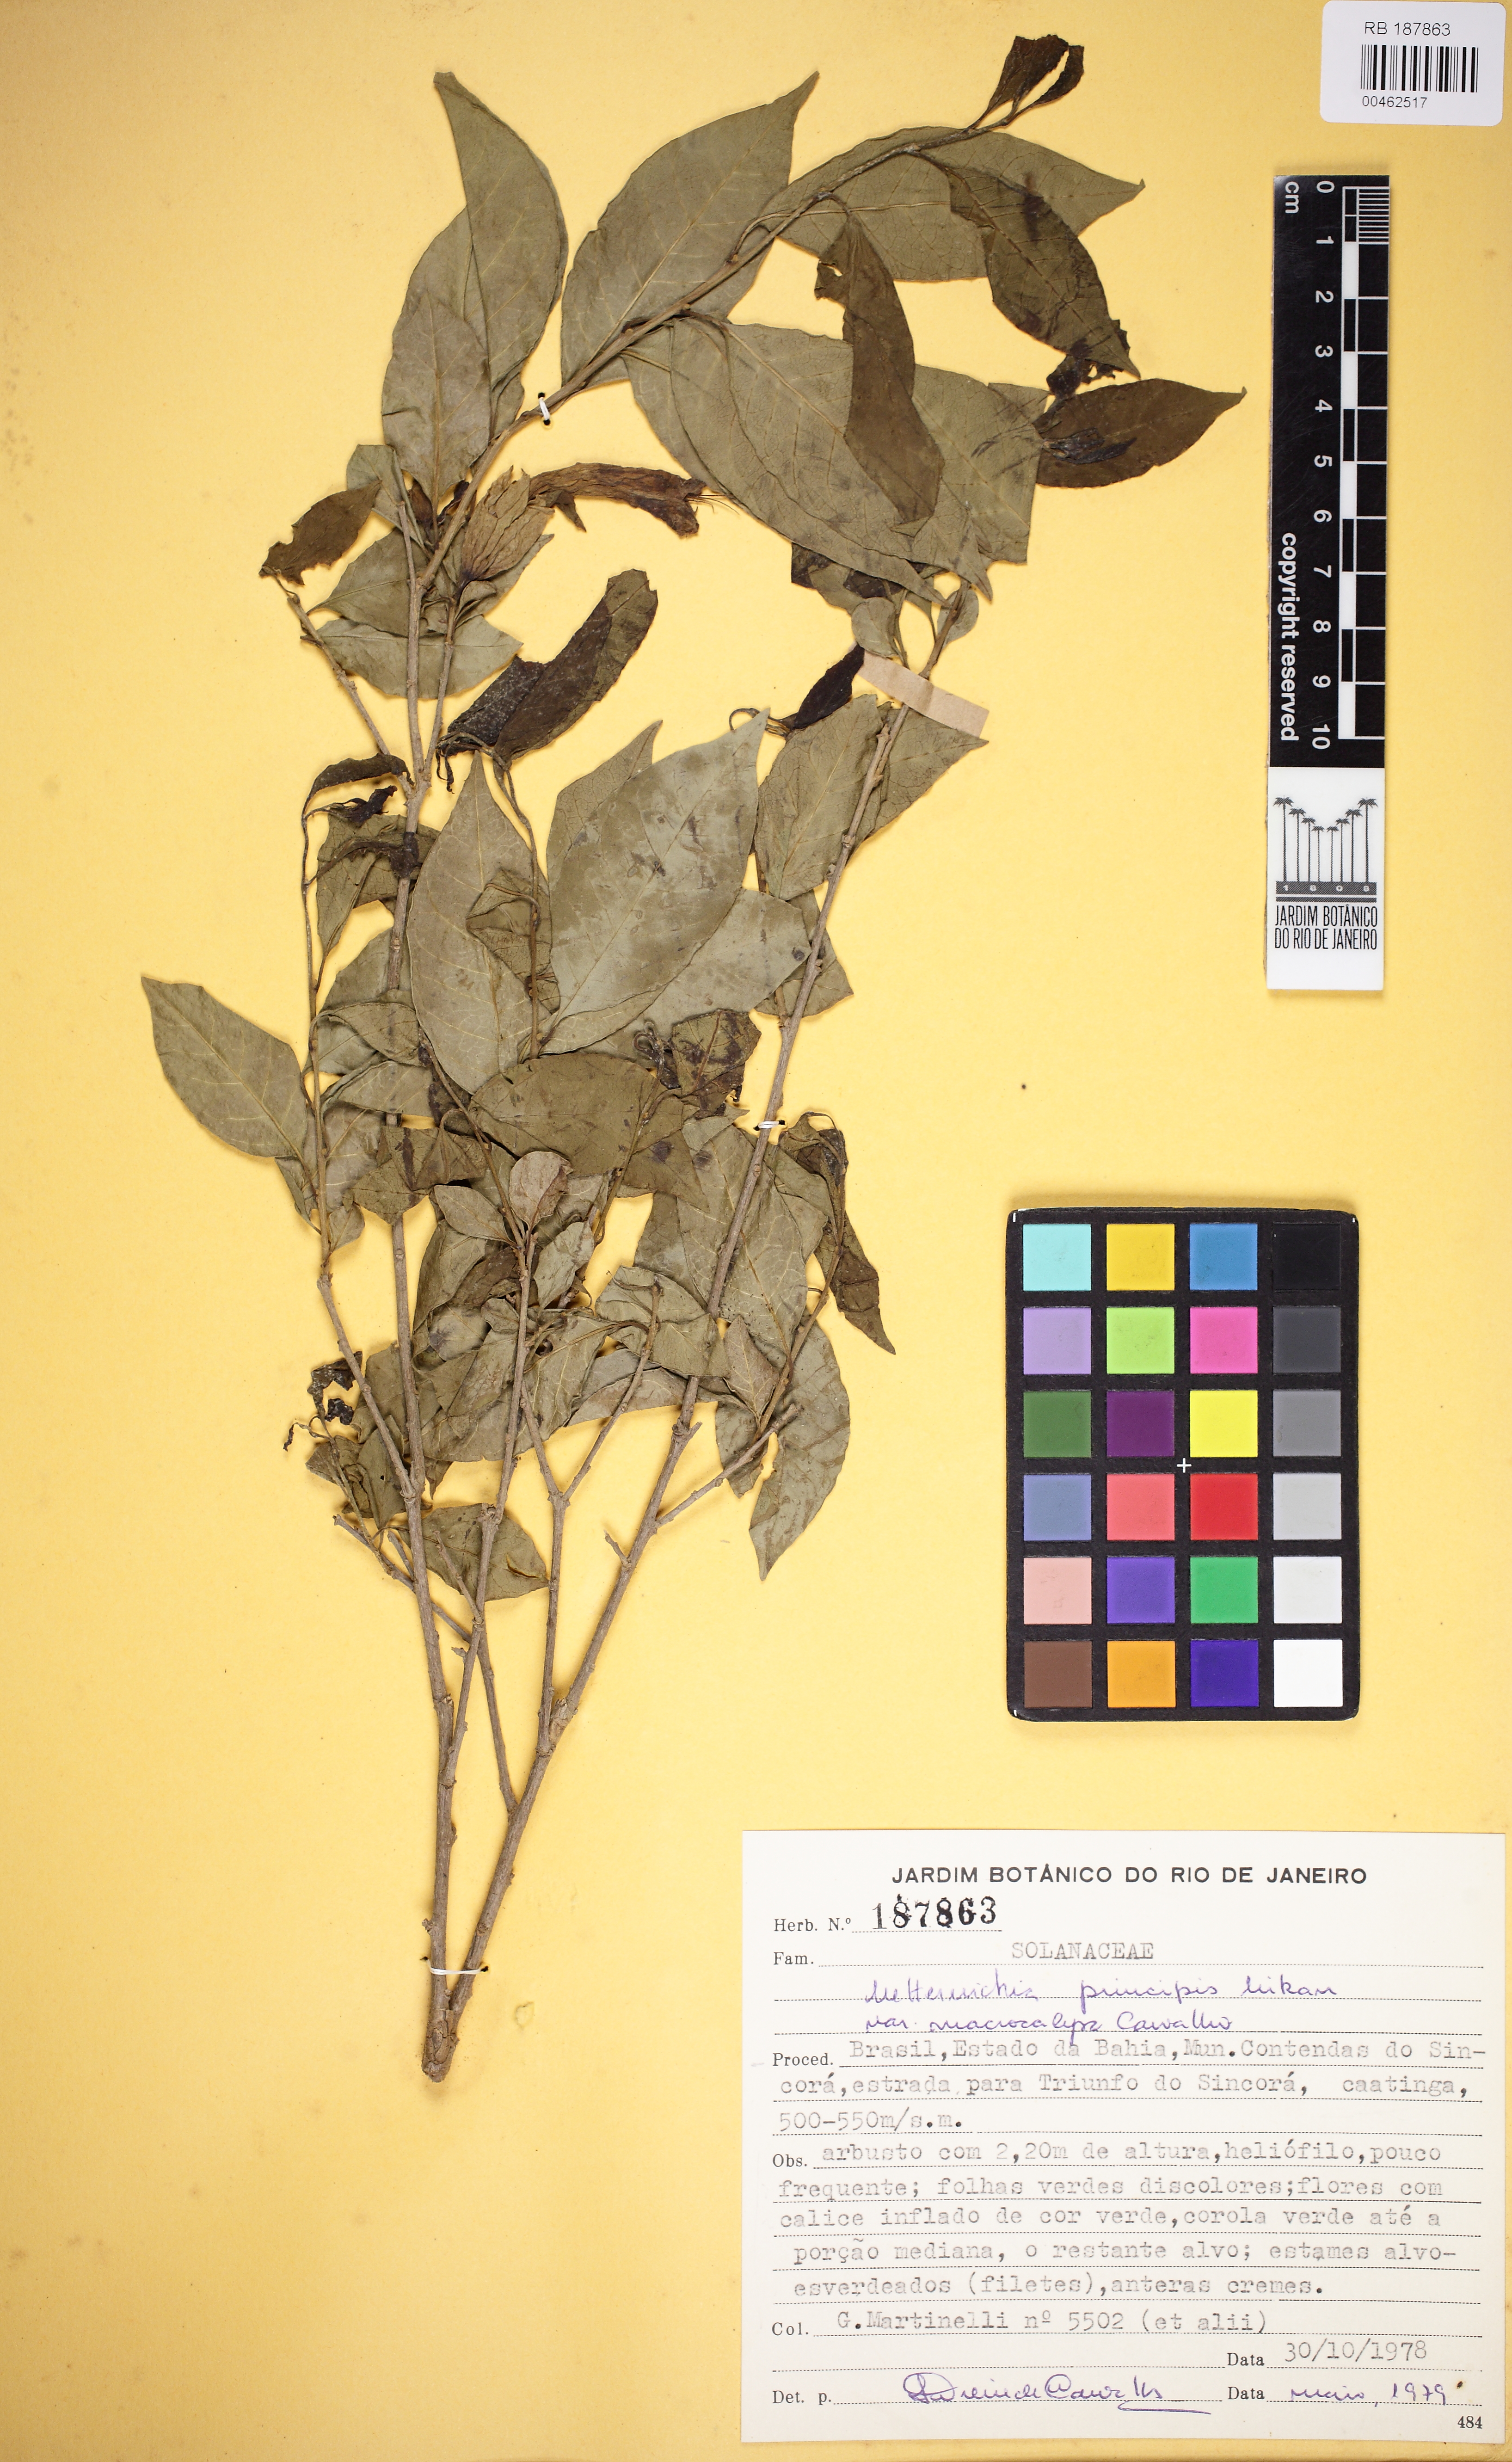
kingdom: Plantae
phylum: Tracheophyta
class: Magnoliopsida
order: Solanales
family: Solanaceae
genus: Metternichia
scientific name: Metternichia princeps
